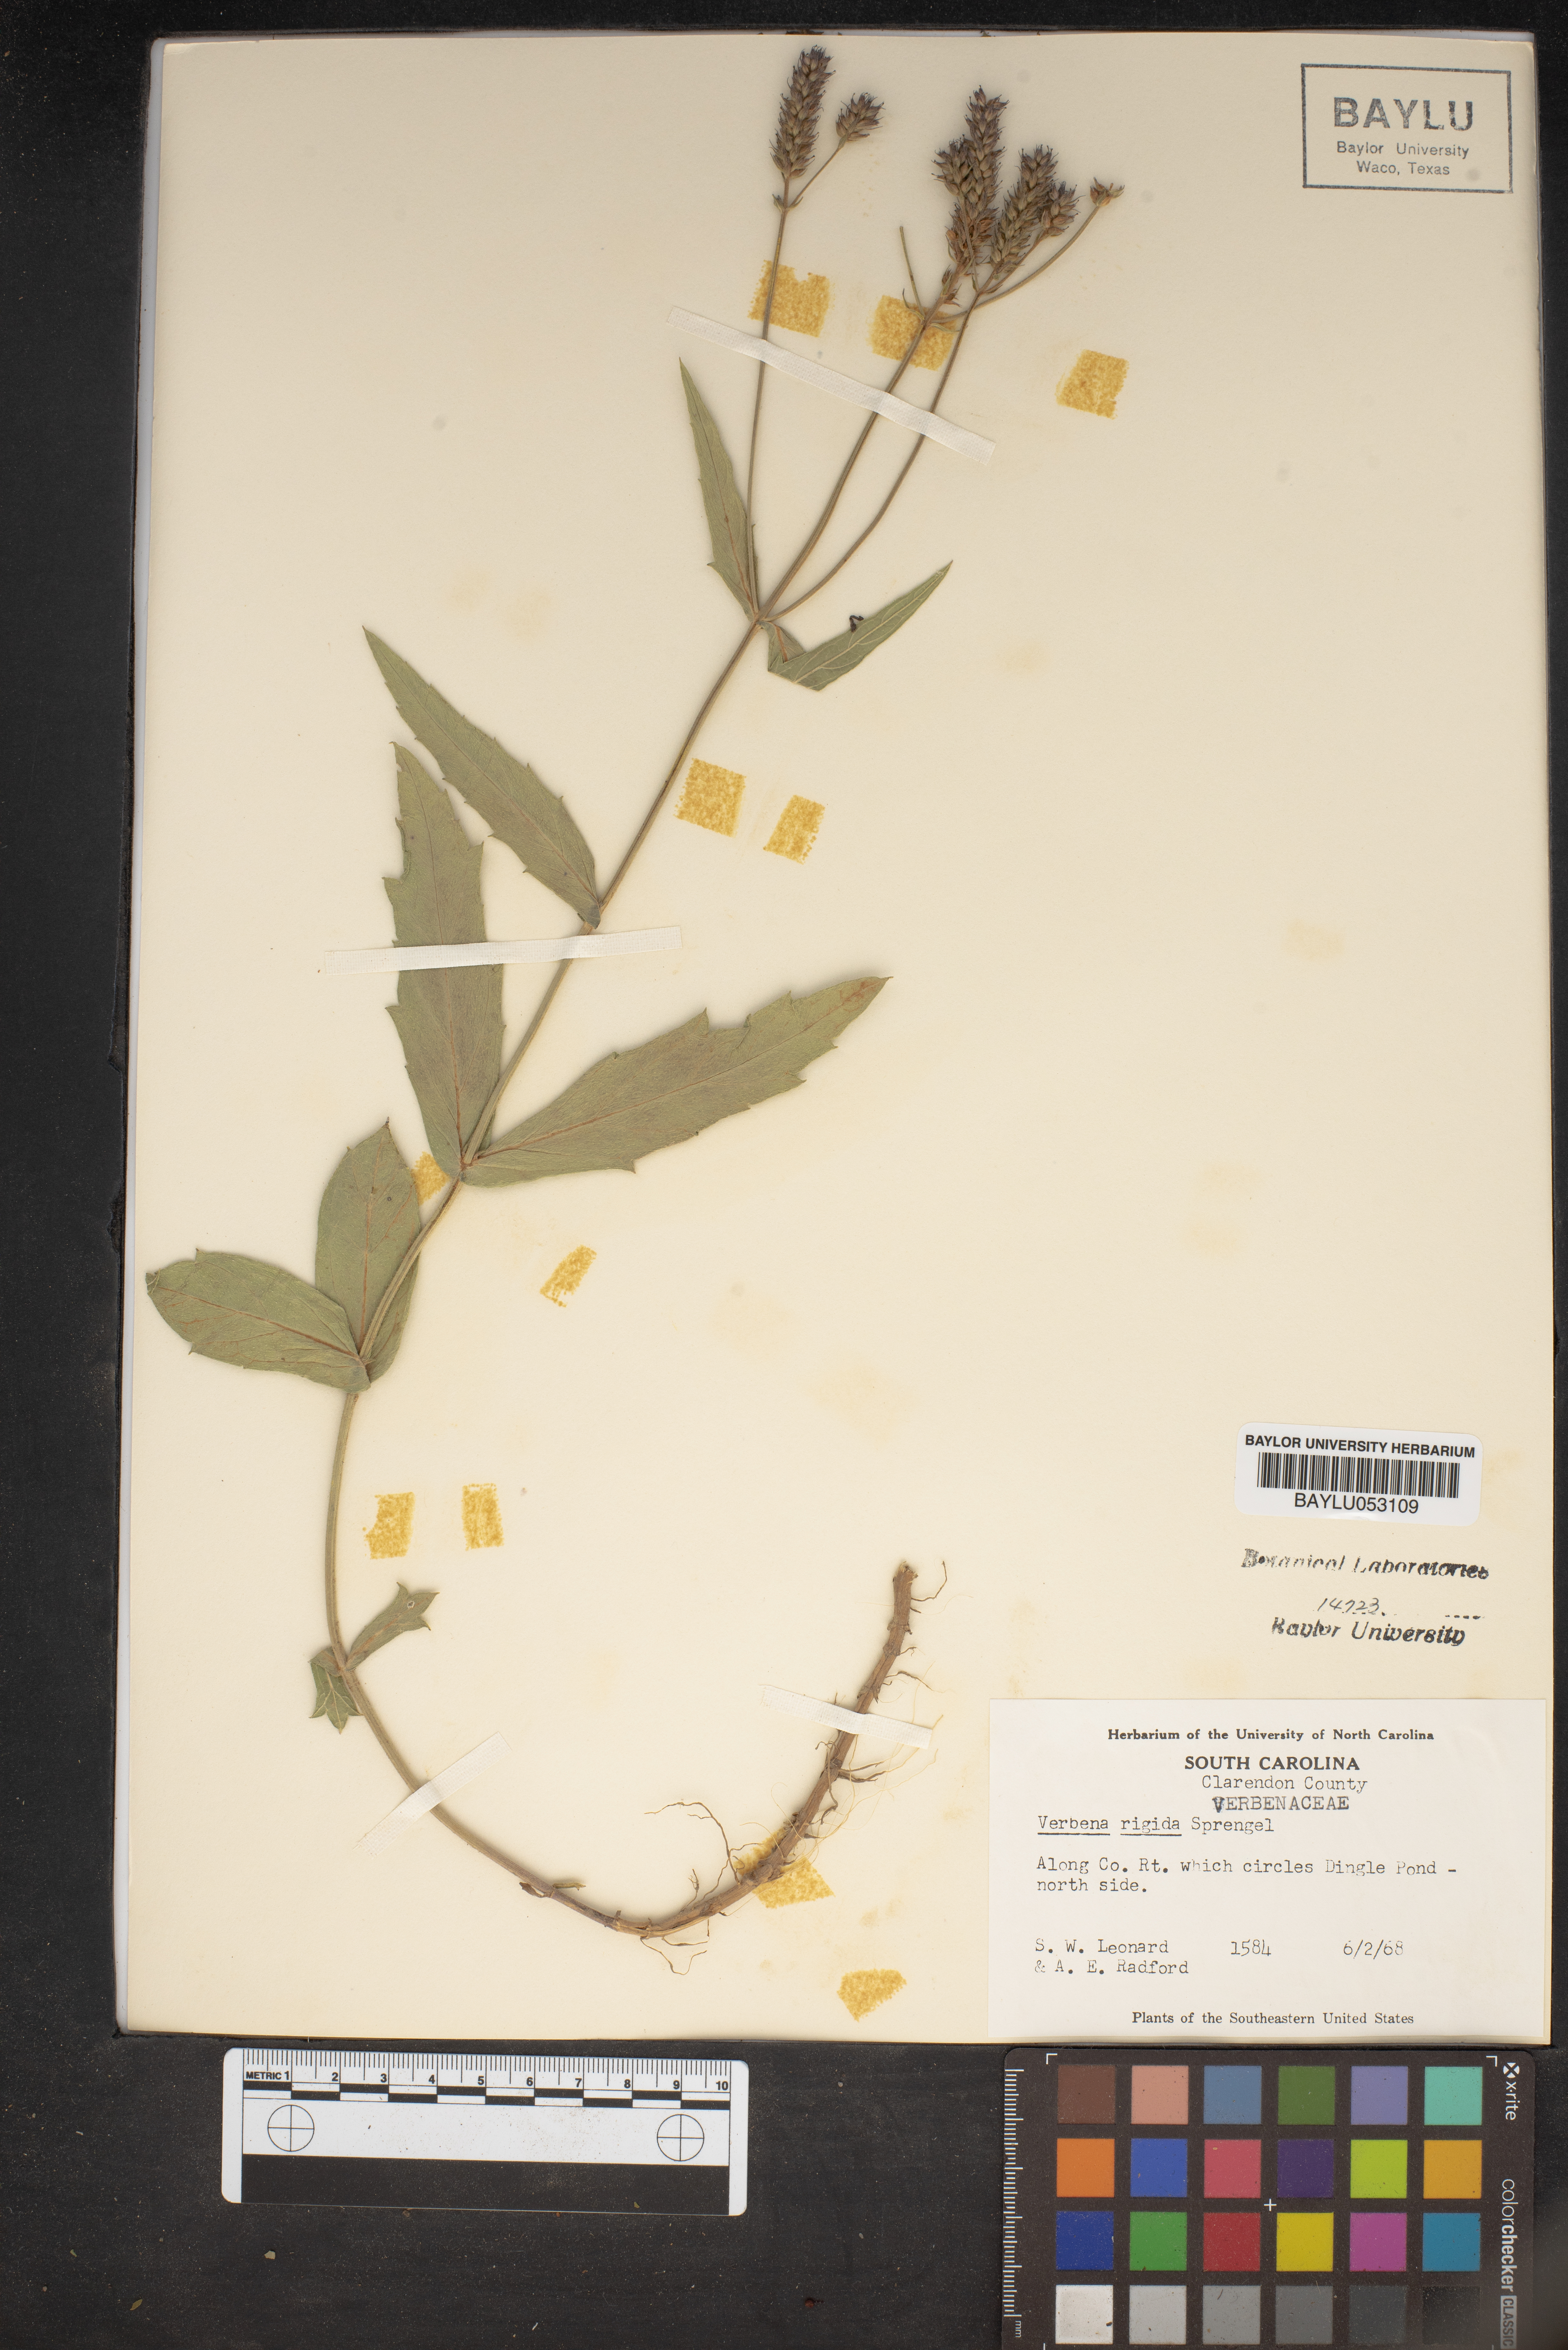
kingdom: Plantae
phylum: Tracheophyta
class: Magnoliopsida
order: Lamiales
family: Verbenaceae
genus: Verbena
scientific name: Verbena rigida
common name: Slender vervain
